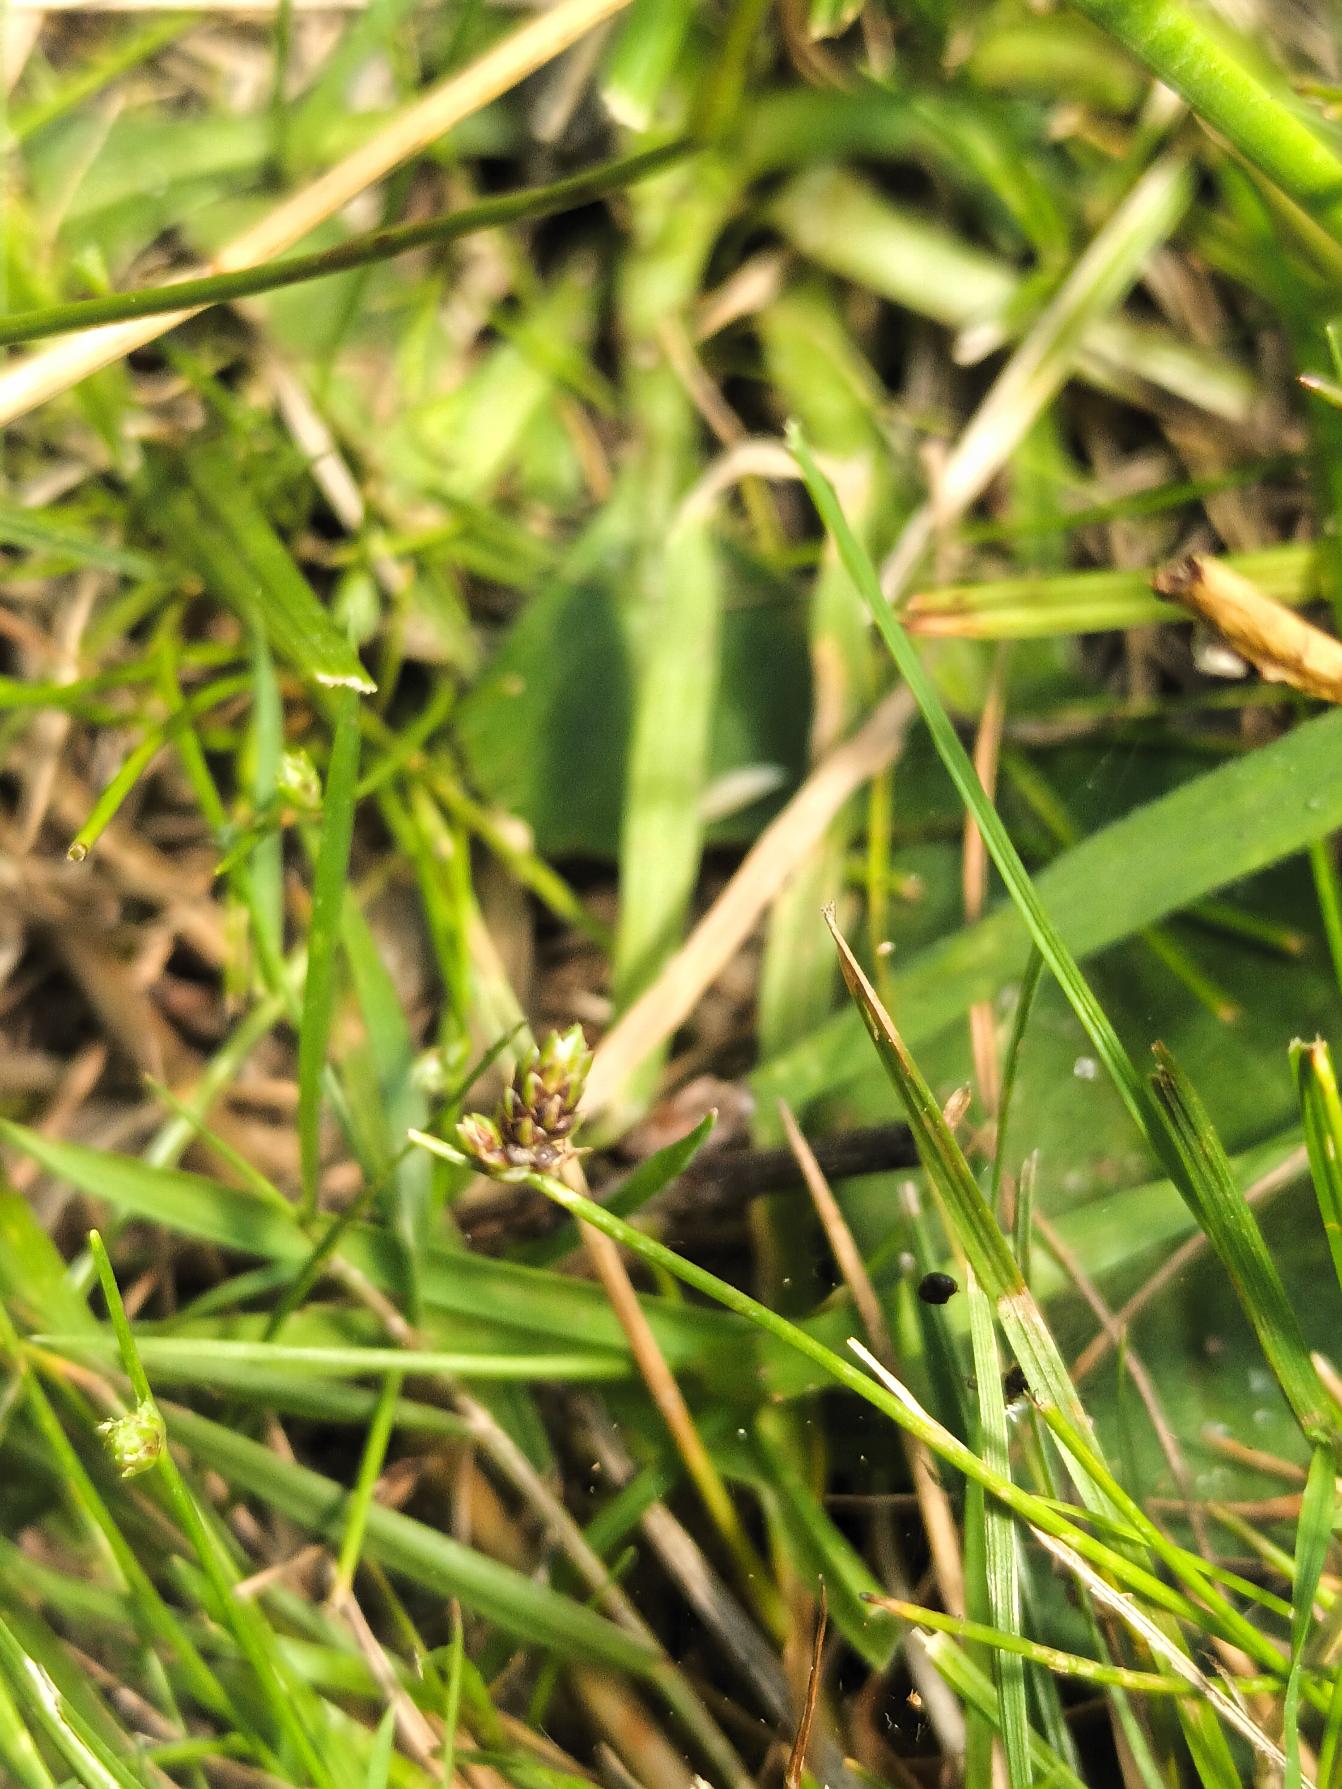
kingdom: Plantae
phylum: Tracheophyta
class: Liliopsida
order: Poales
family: Cyperaceae
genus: Isolepis
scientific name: Isolepis setacea
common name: Børste-kogleaks
